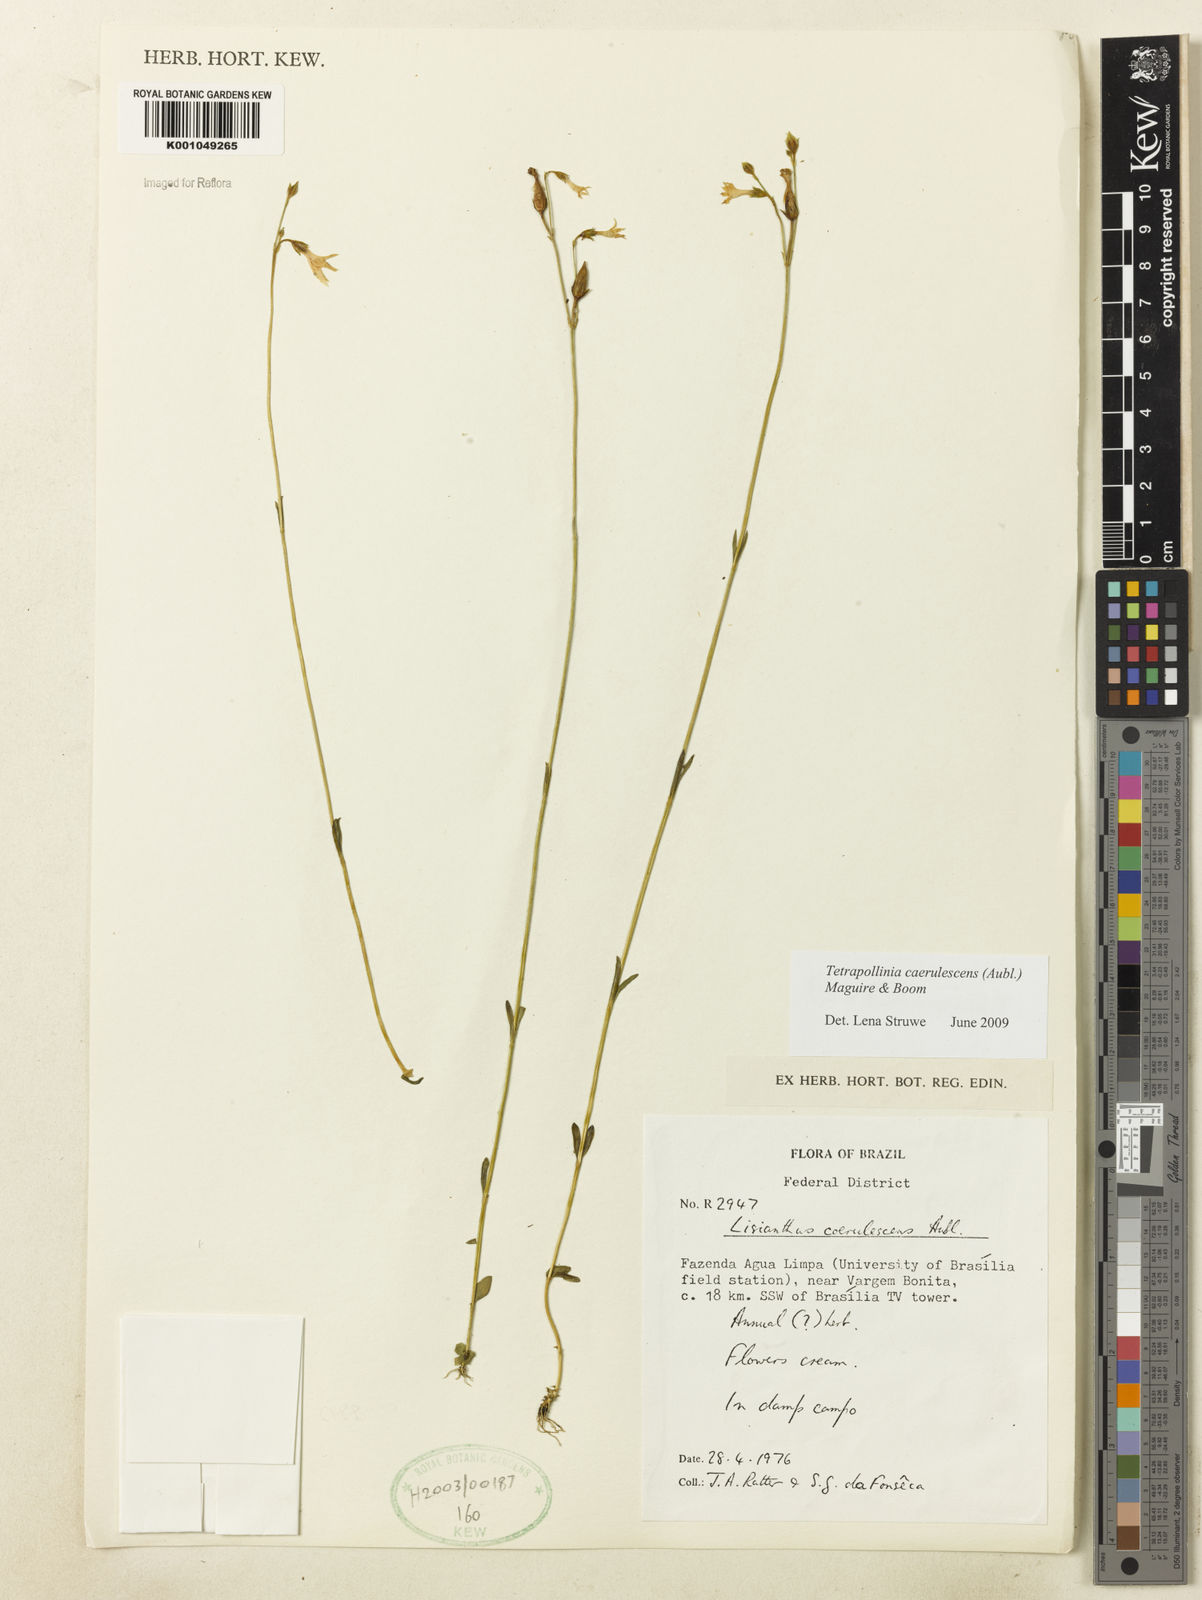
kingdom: Plantae
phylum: Tracheophyta
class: Magnoliopsida
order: Gentianales
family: Gentianaceae
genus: Tetrapollinia
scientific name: Tetrapollinia caerulescens
